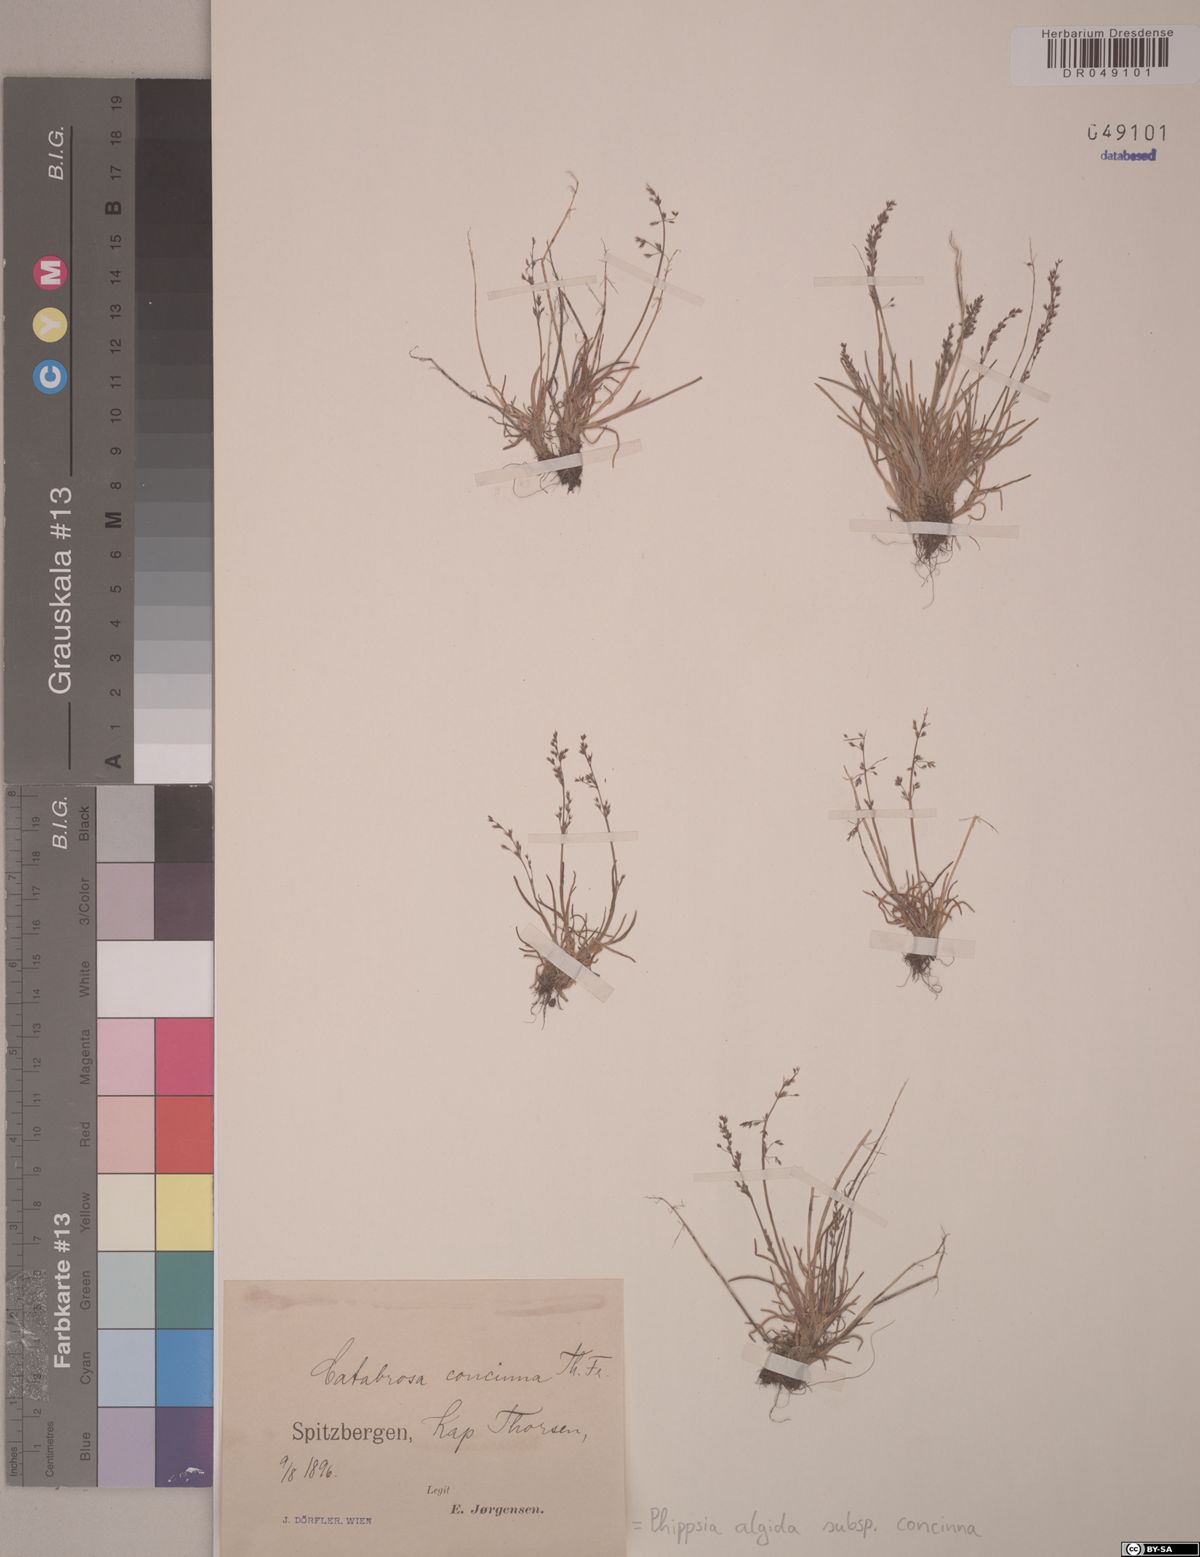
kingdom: Plantae
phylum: Tracheophyta
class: Liliopsida
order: Poales
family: Poaceae
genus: Phippsia
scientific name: Phippsia concinna
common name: Snowgrass
